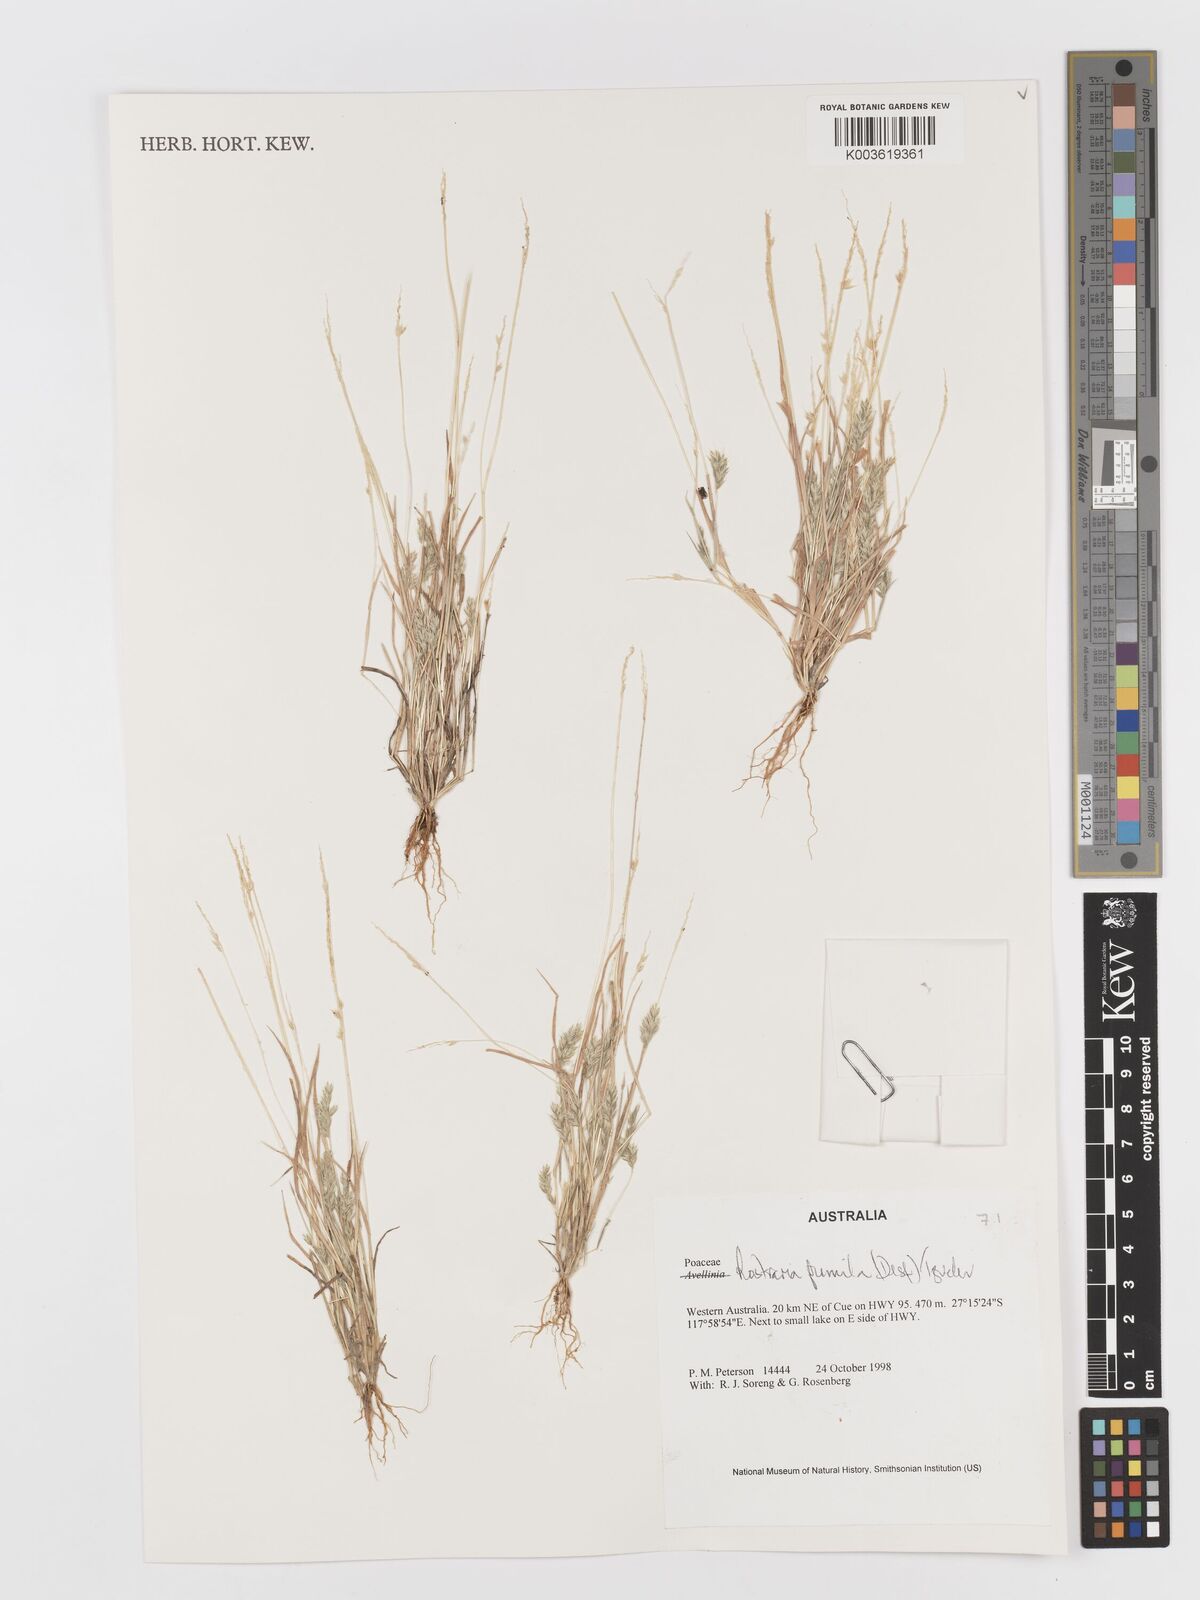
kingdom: Plantae
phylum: Tracheophyta
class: Liliopsida
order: Poales
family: Poaceae
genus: Rostraria
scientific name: Rostraria pumila
